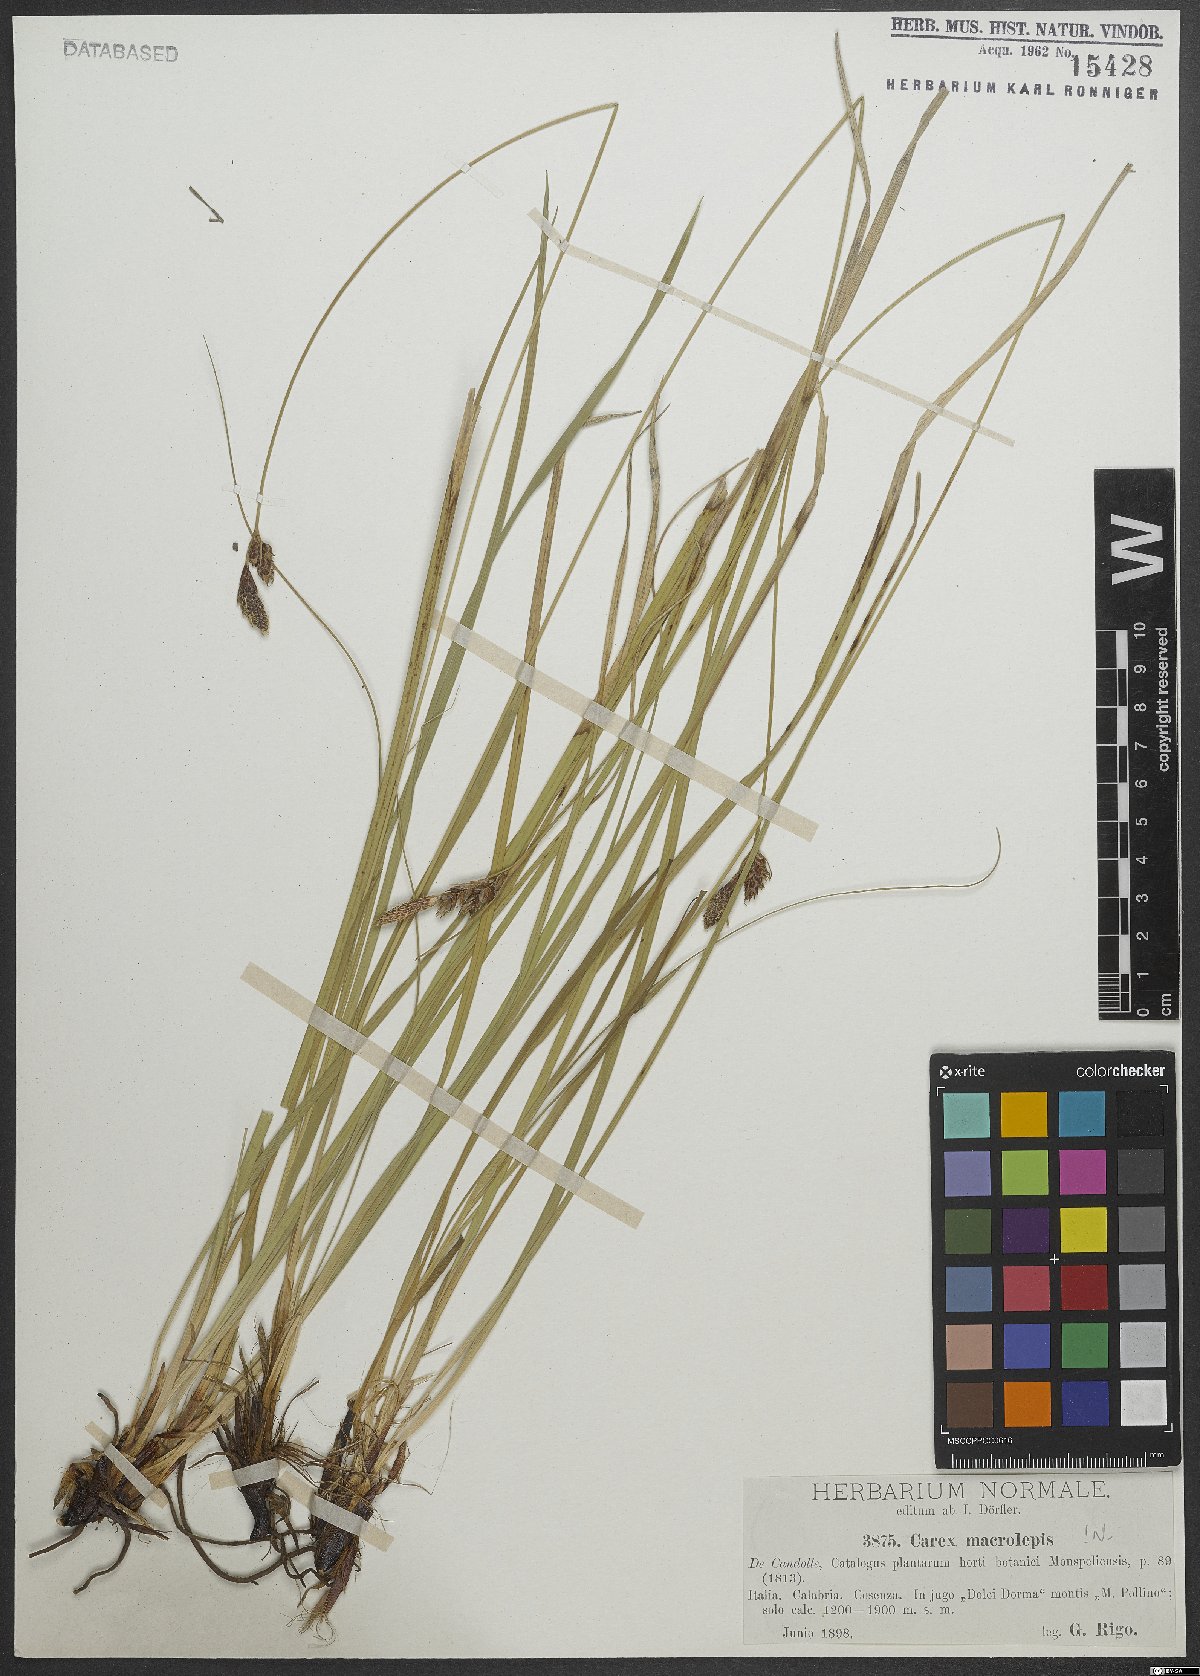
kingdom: Plantae
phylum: Tracheophyta
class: Liliopsida
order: Poales
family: Cyperaceae
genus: Carex
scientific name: Carex macrolepis
